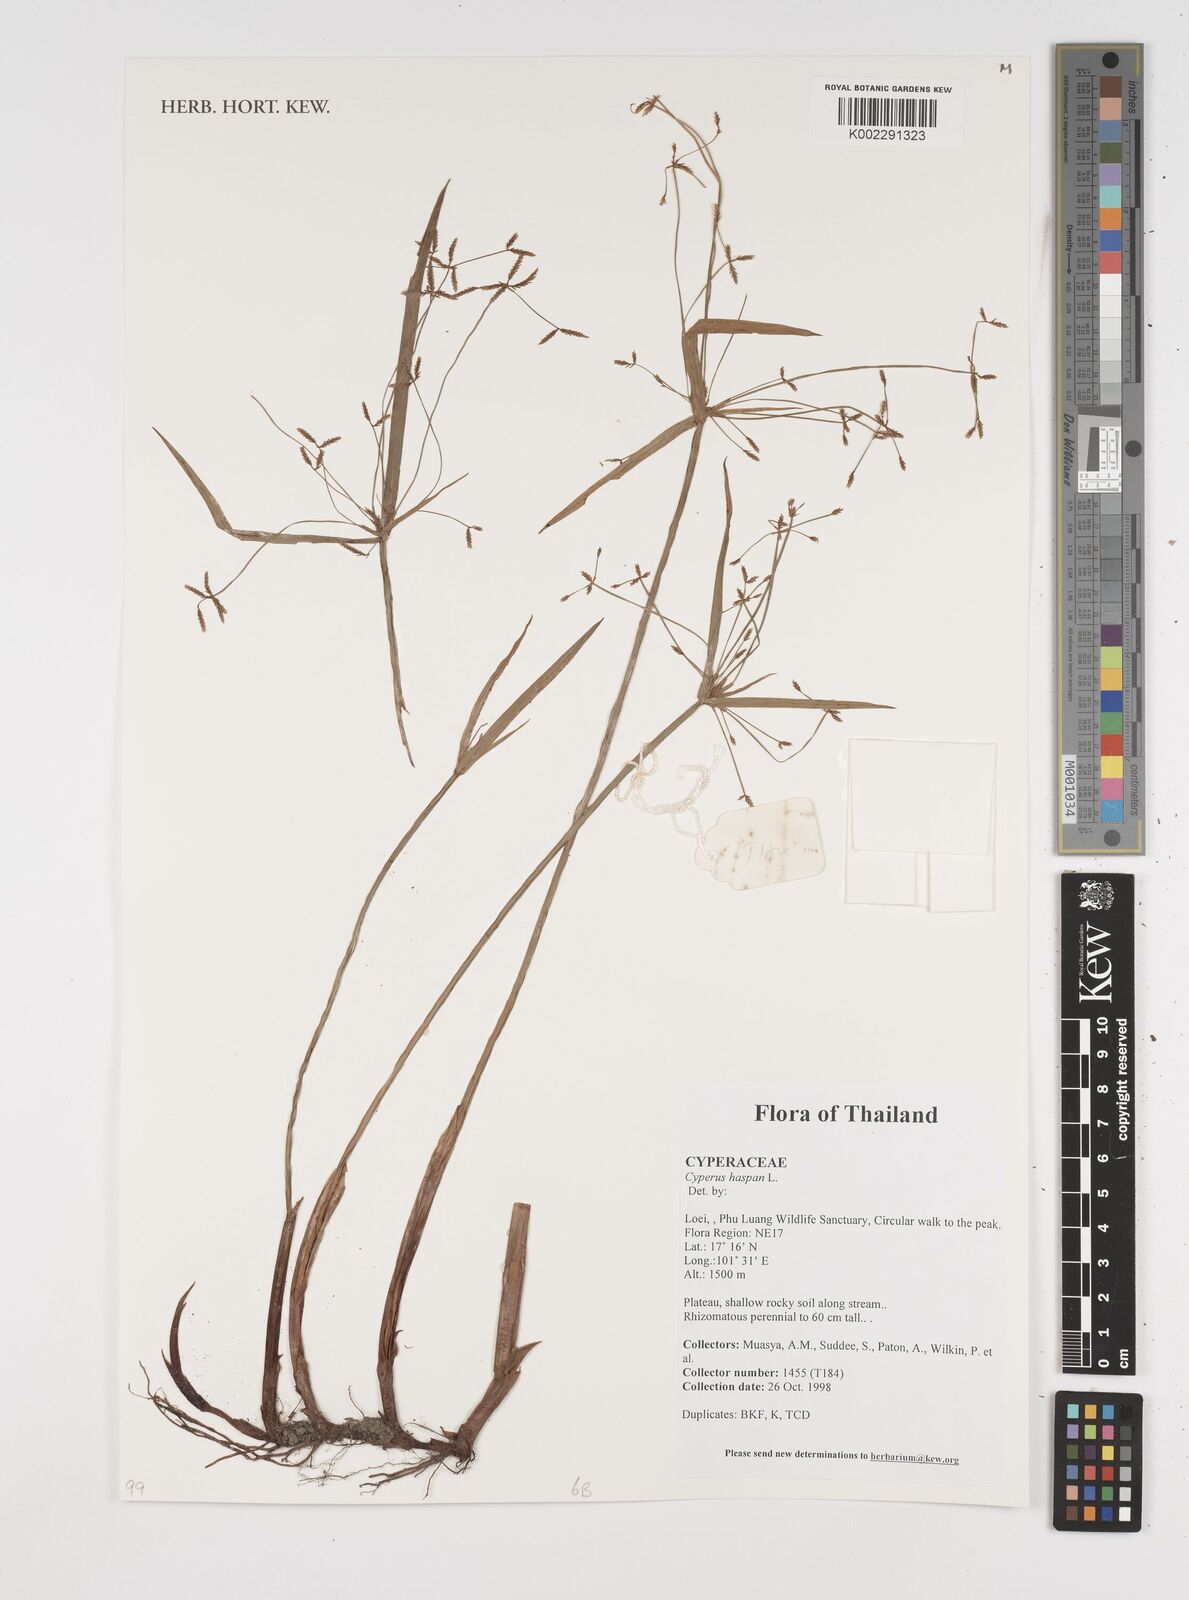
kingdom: Plantae
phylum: Tracheophyta
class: Liliopsida
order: Poales
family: Cyperaceae
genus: Cyperus
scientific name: Cyperus haspan
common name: Haspan flatsedge
